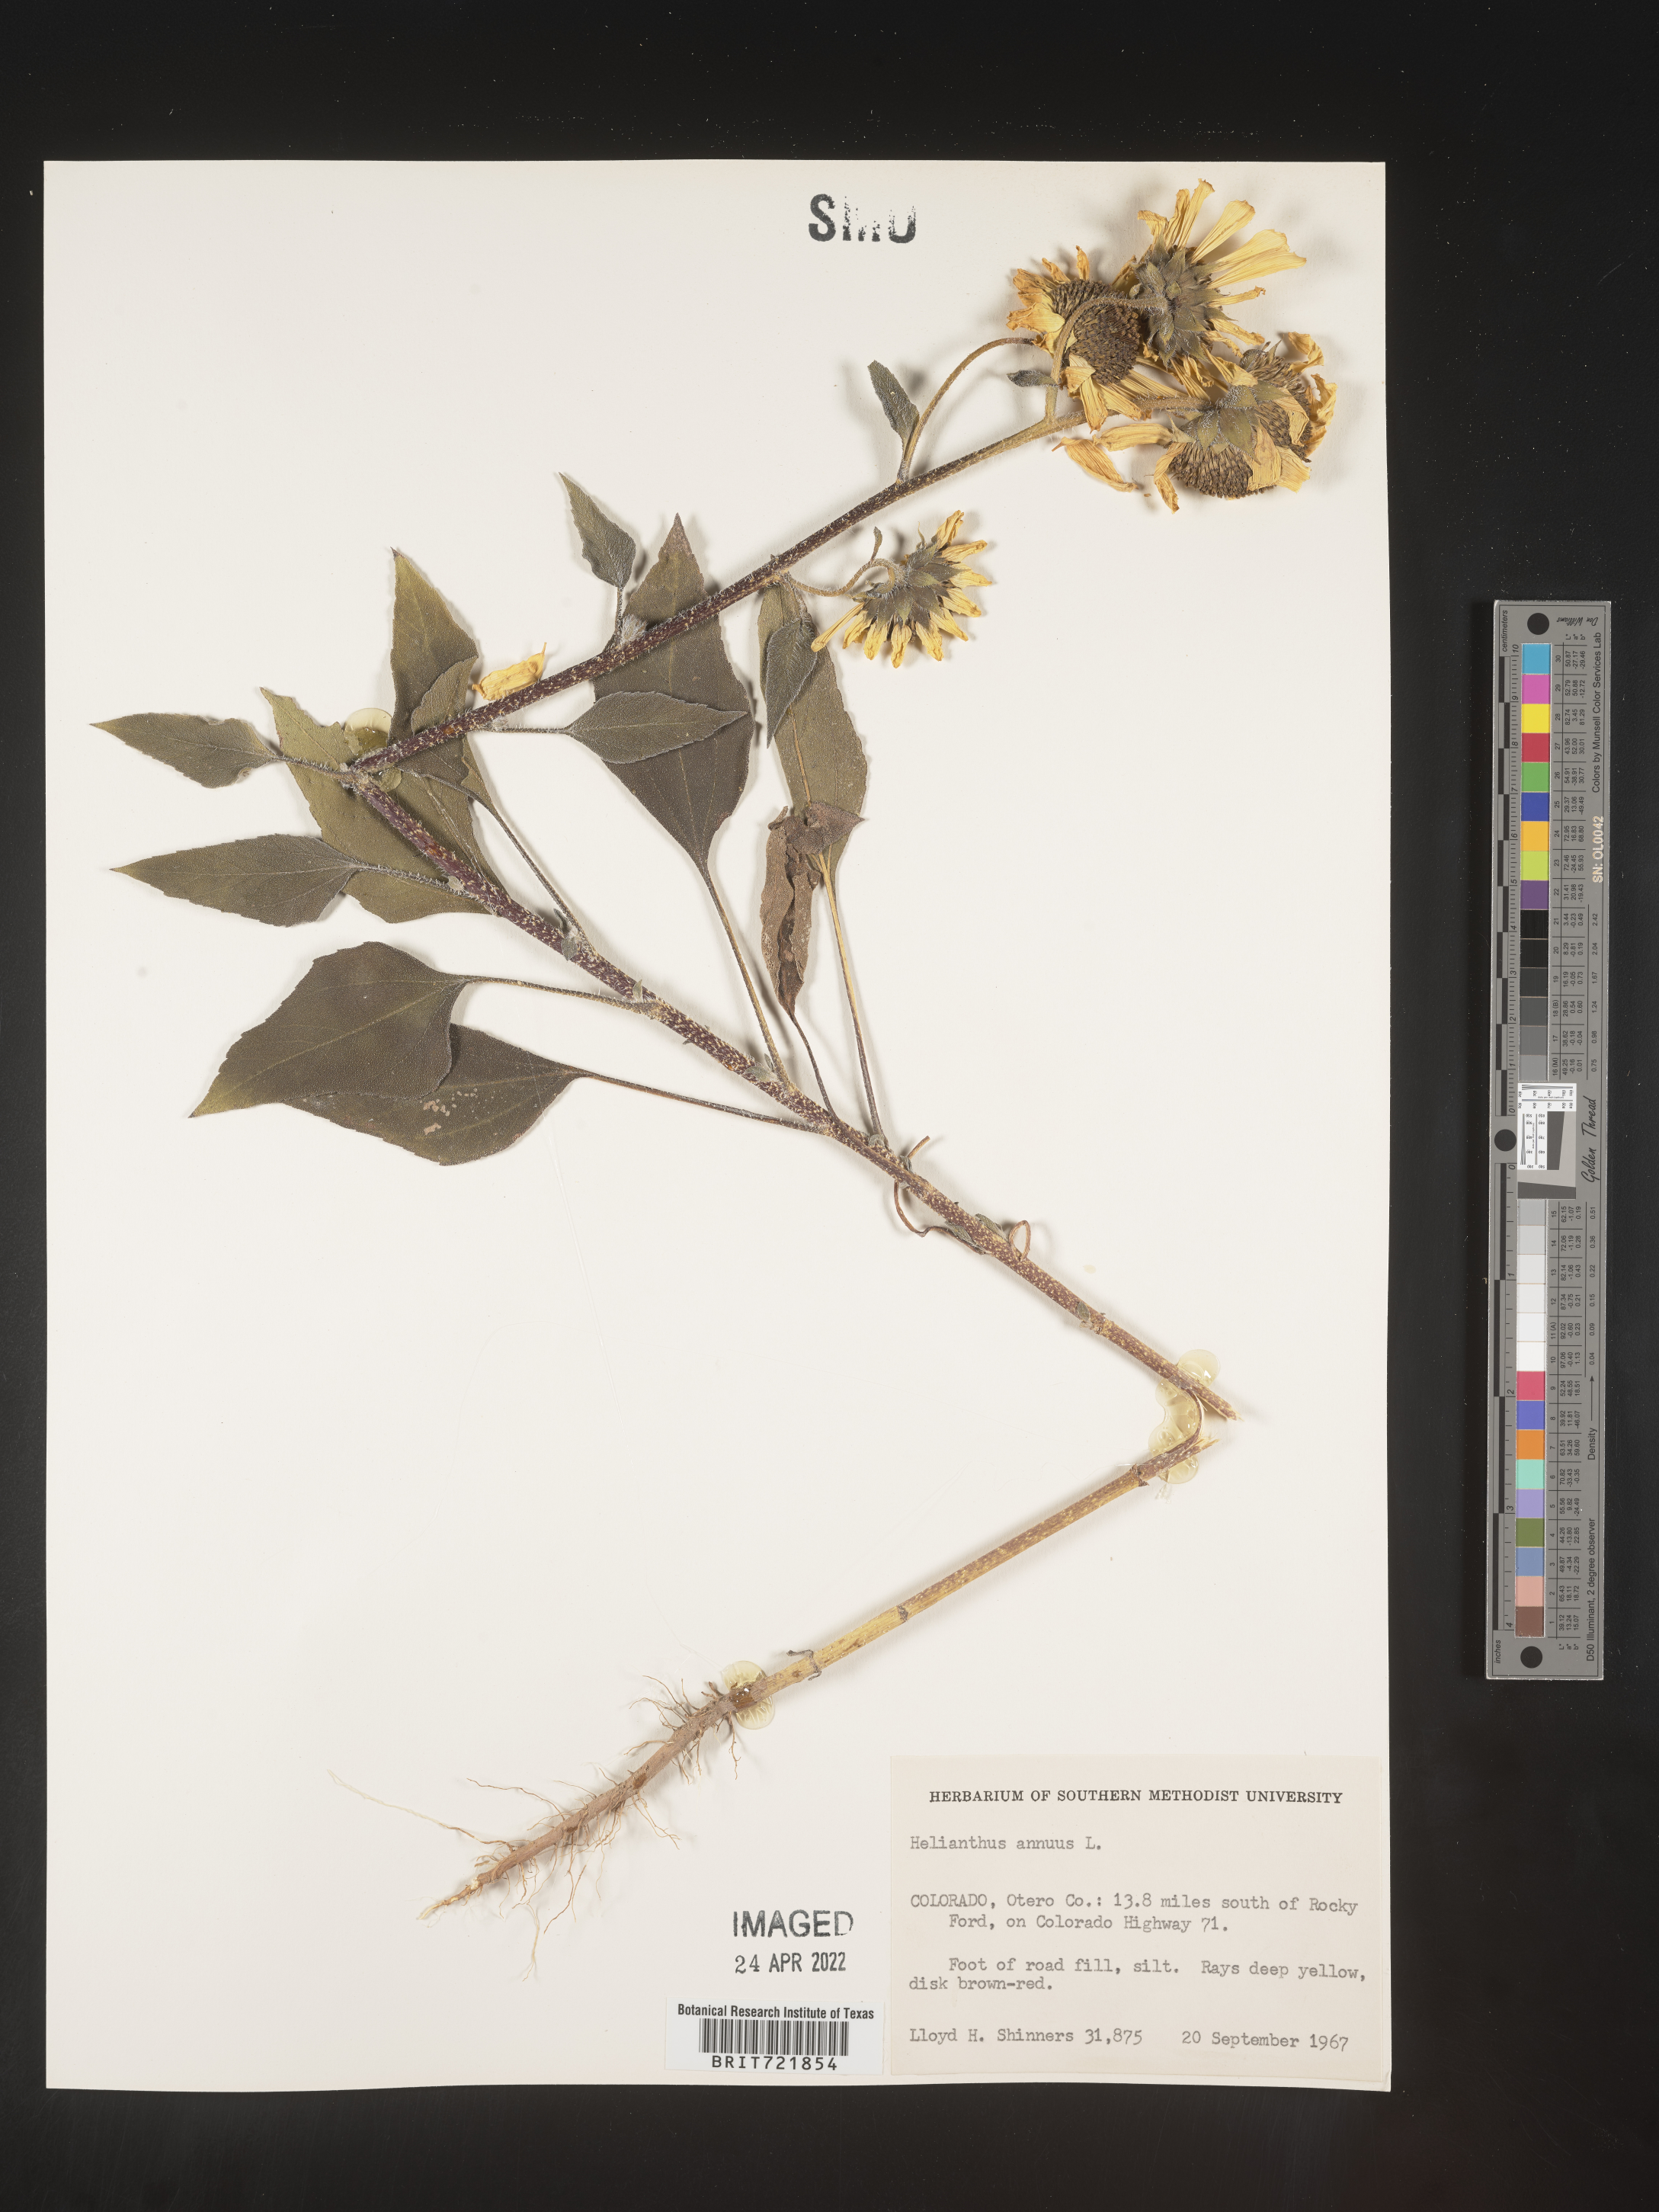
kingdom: Plantae
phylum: Tracheophyta
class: Magnoliopsida
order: Asterales
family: Asteraceae
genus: Helianthus
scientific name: Helianthus annuus
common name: Sunflower
